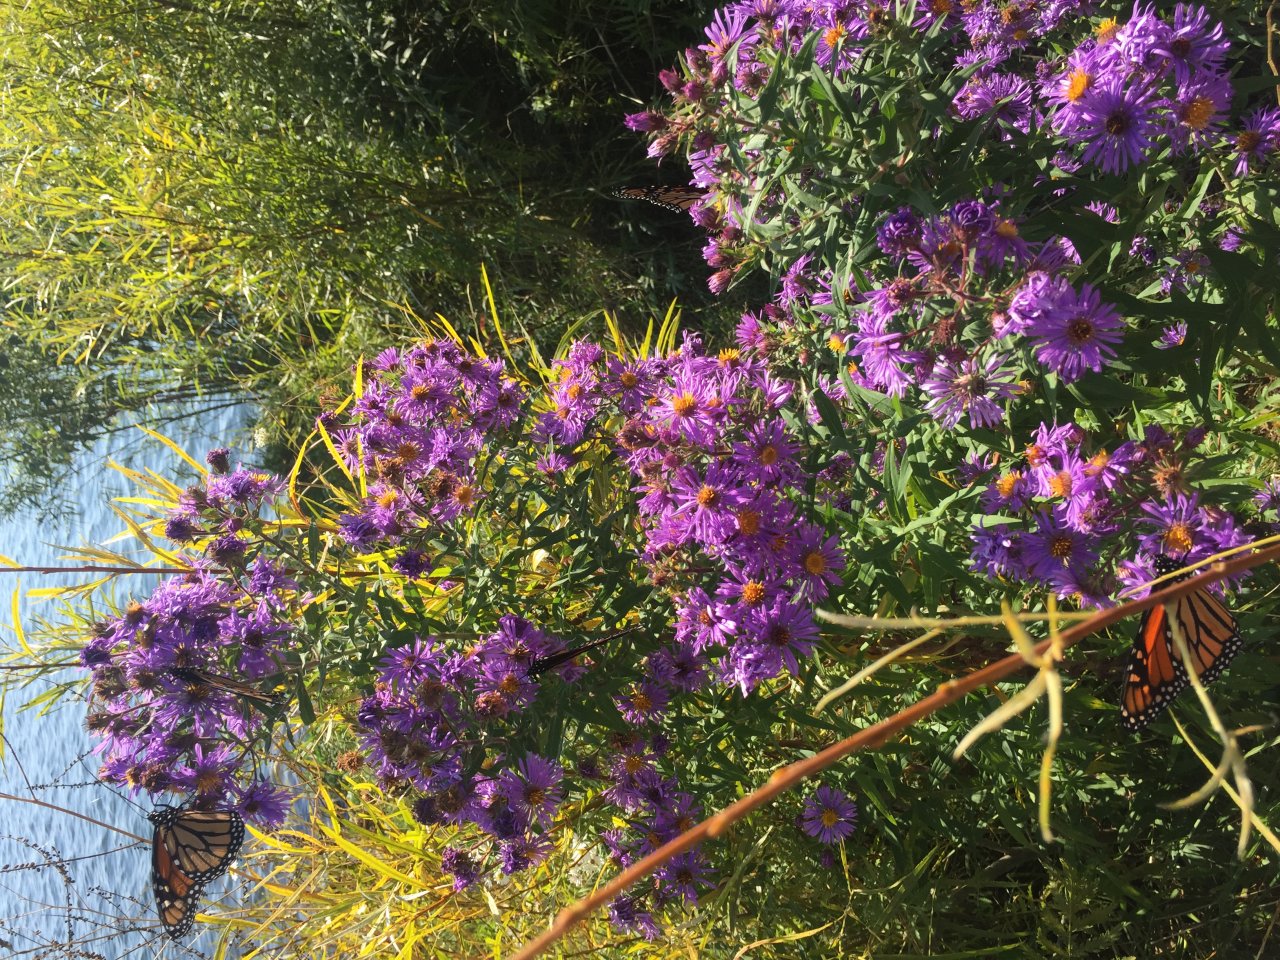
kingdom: Animalia
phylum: Arthropoda
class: Insecta
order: Lepidoptera
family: Nymphalidae
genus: Danaus
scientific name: Danaus plexippus
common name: Monarch
